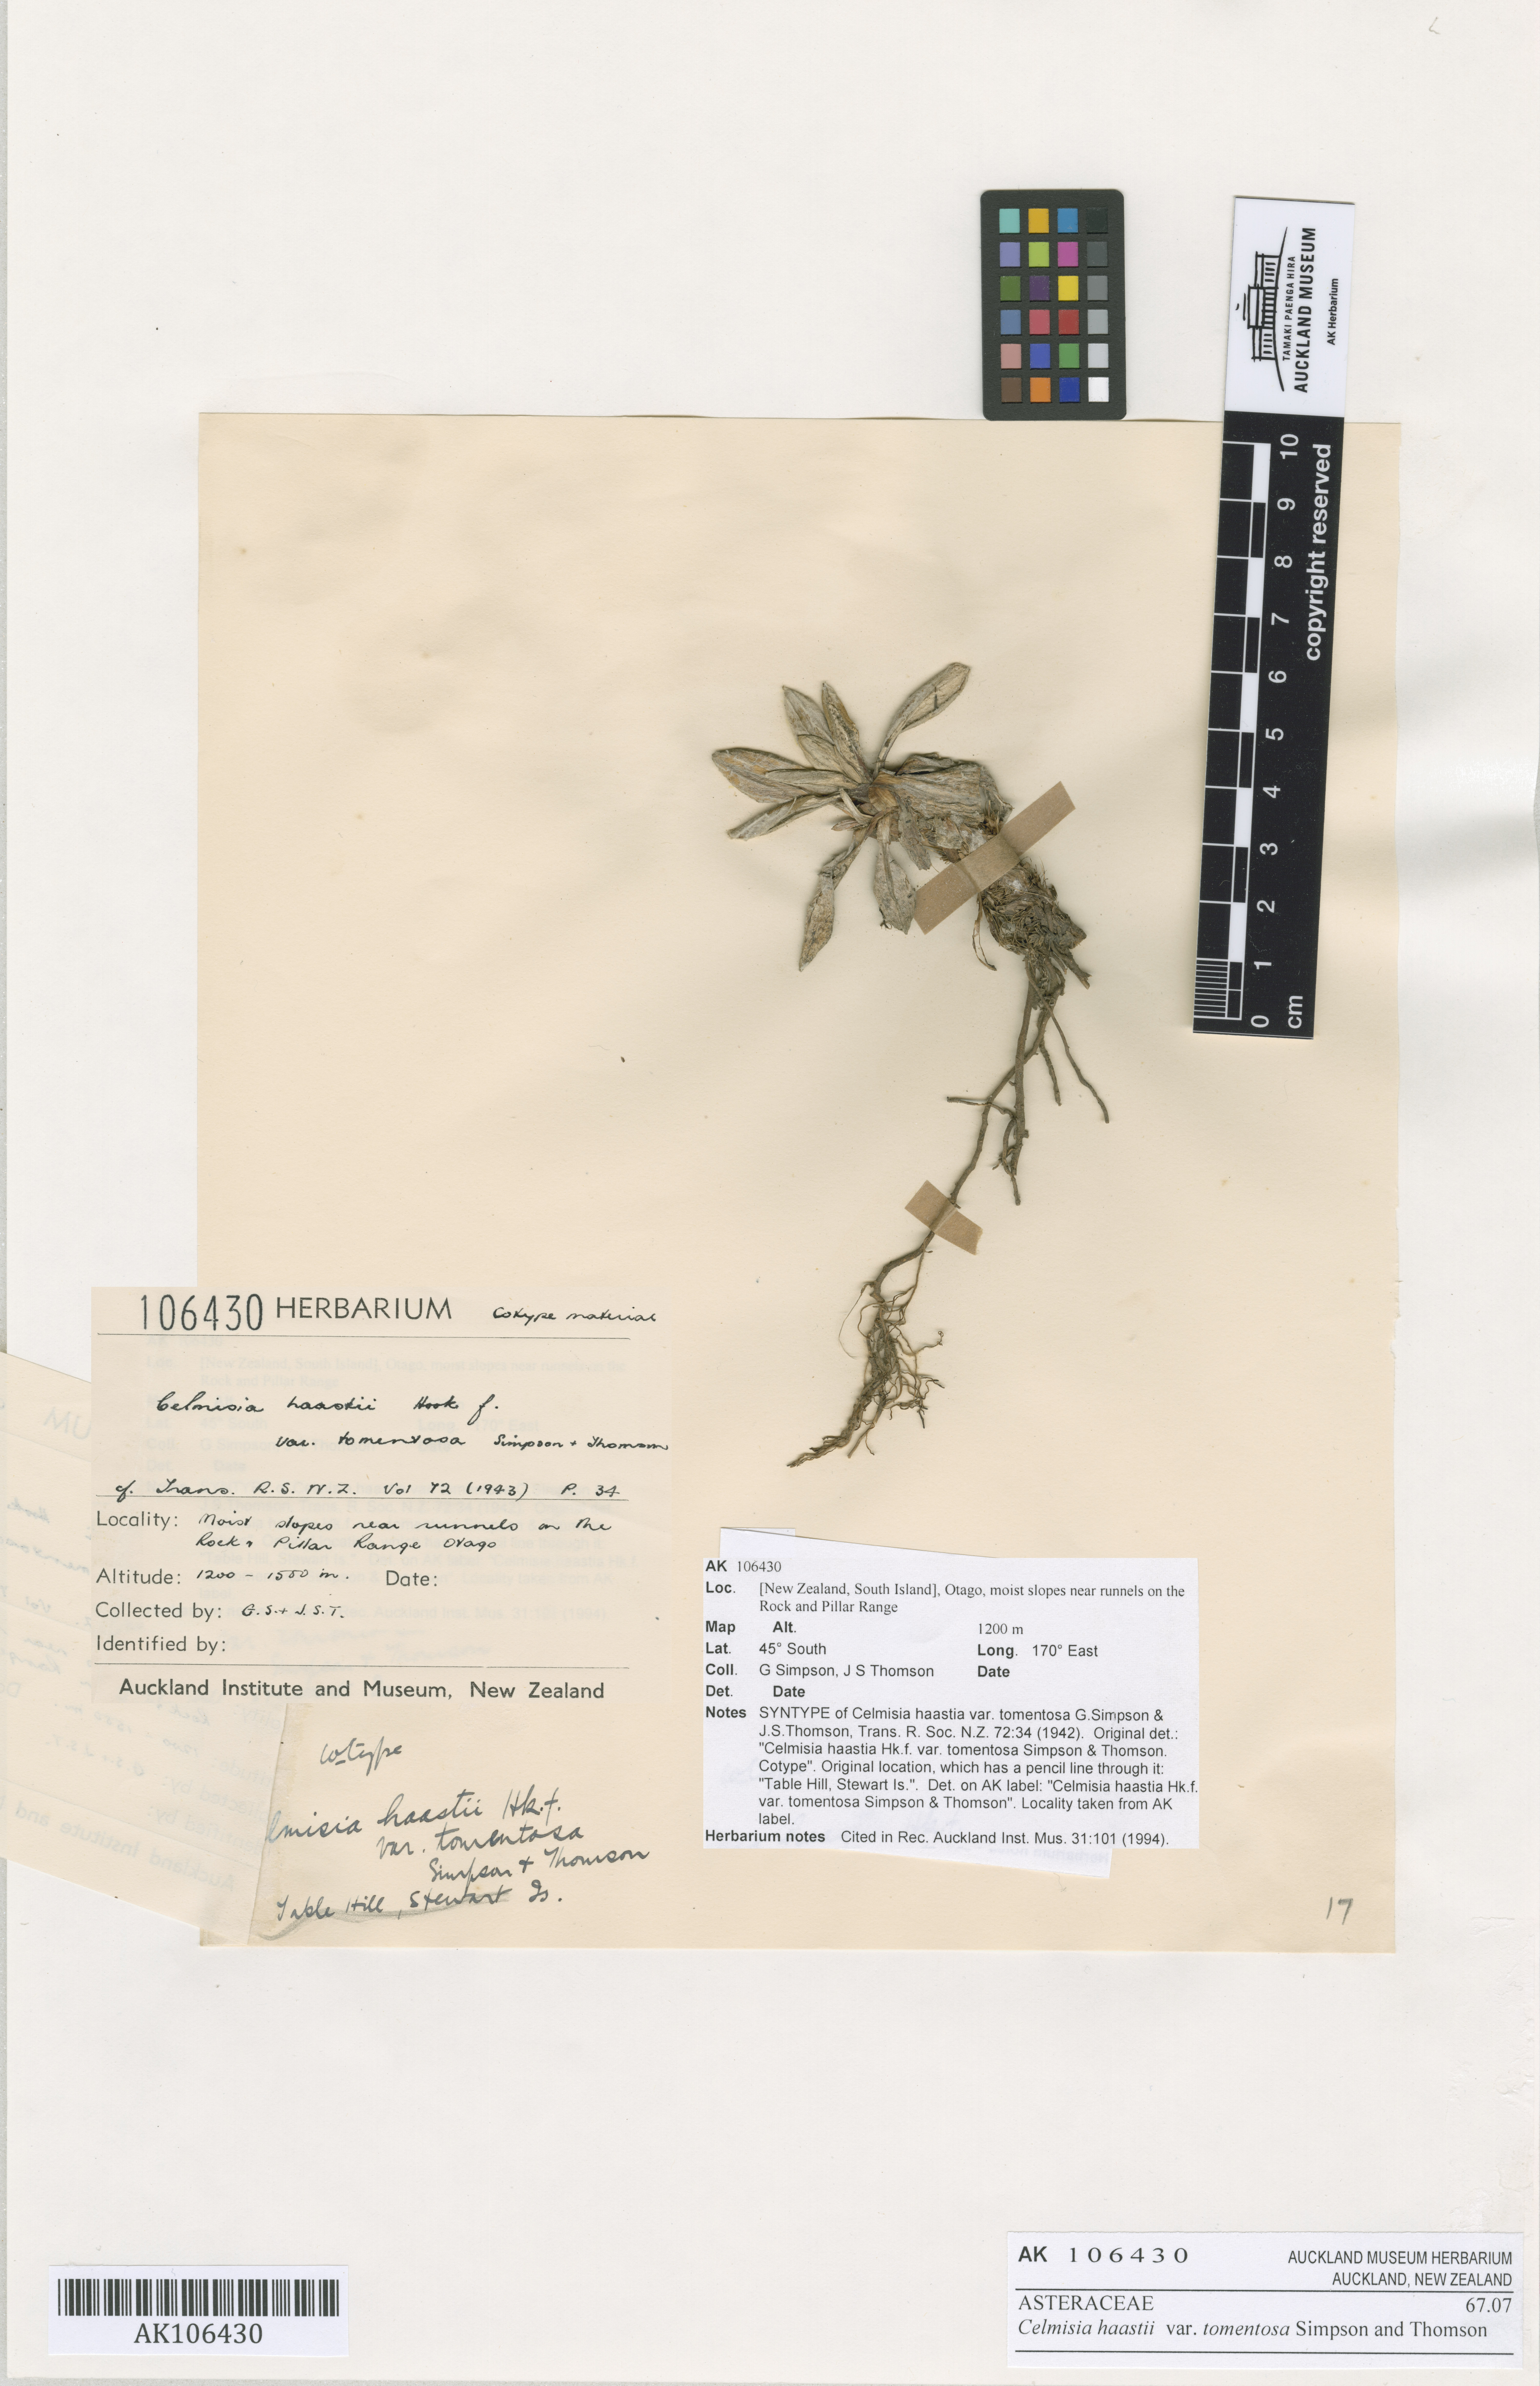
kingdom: Plantae
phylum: Tracheophyta
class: Magnoliopsida
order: Asterales
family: Asteraceae
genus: Celmisia
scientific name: Celmisia haastii
